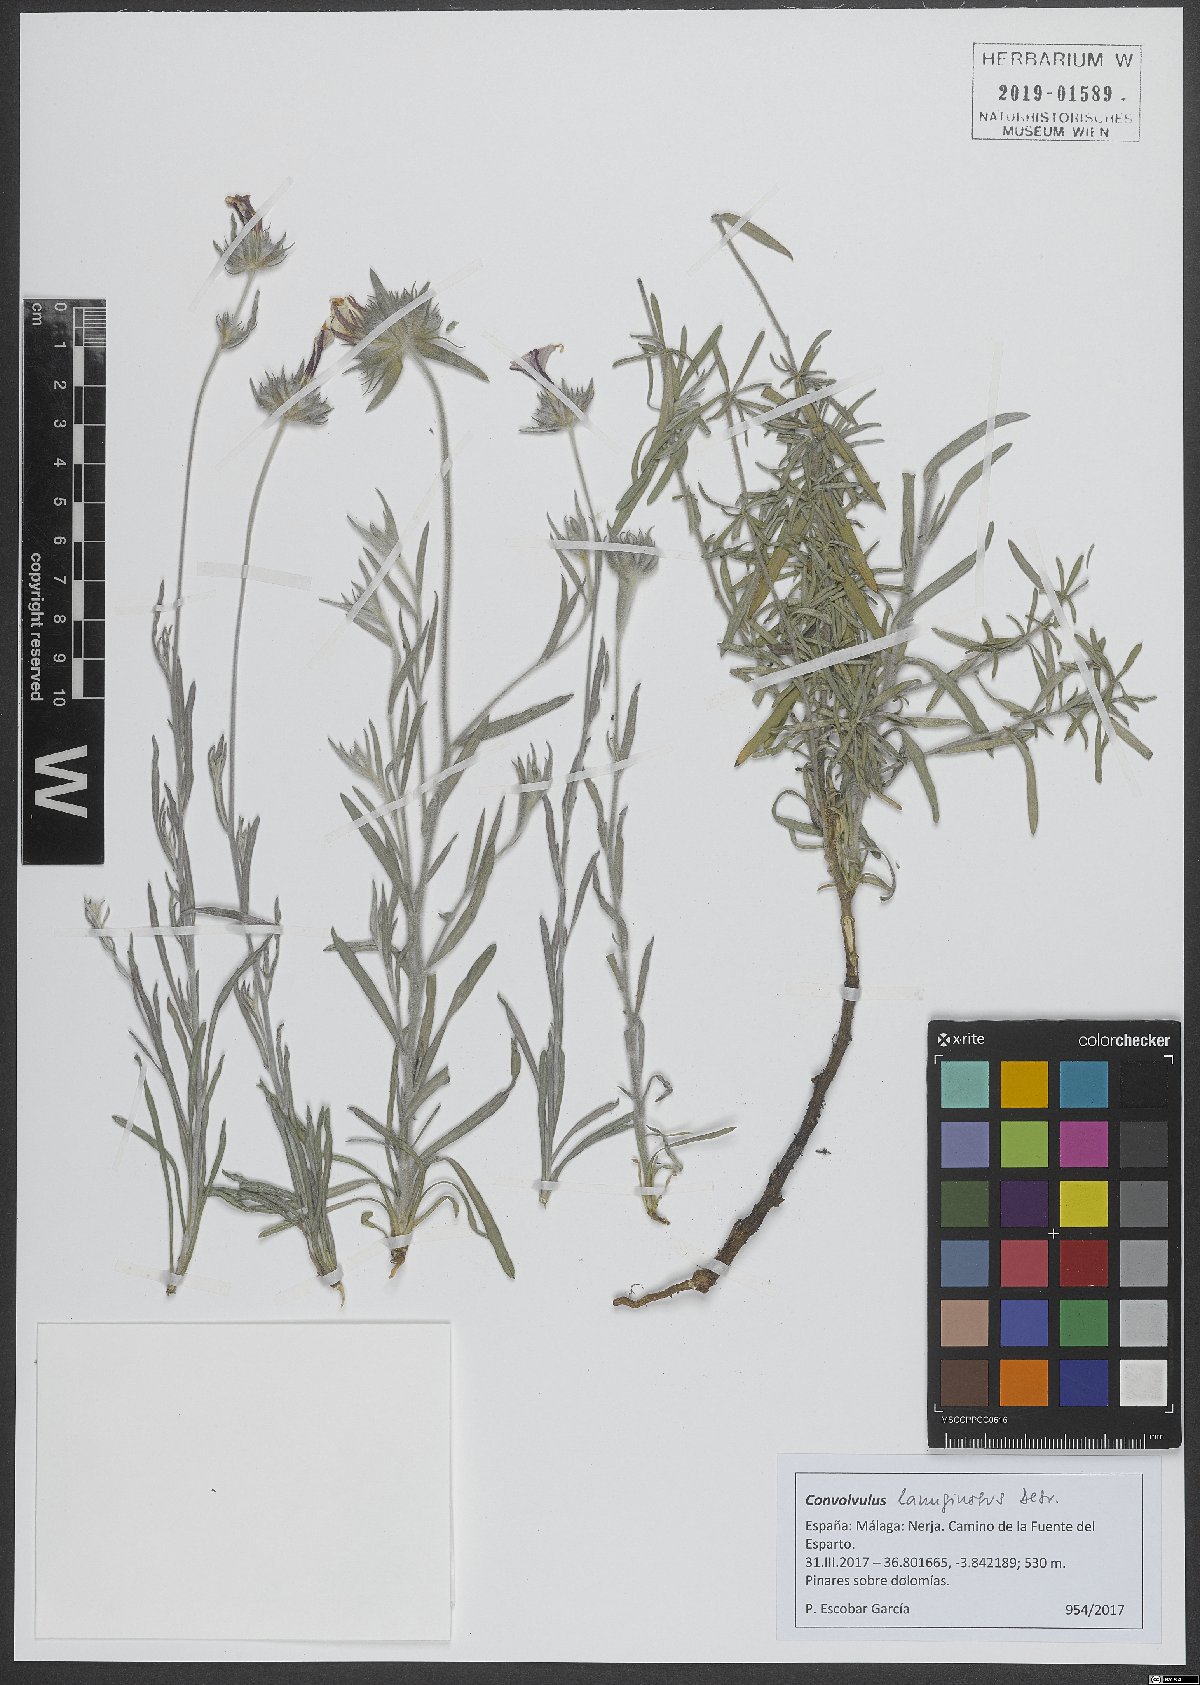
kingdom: Plantae
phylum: Tracheophyta
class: Magnoliopsida
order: Solanales
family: Convolvulaceae
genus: Convolvulus
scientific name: Convolvulus lanuginosus
